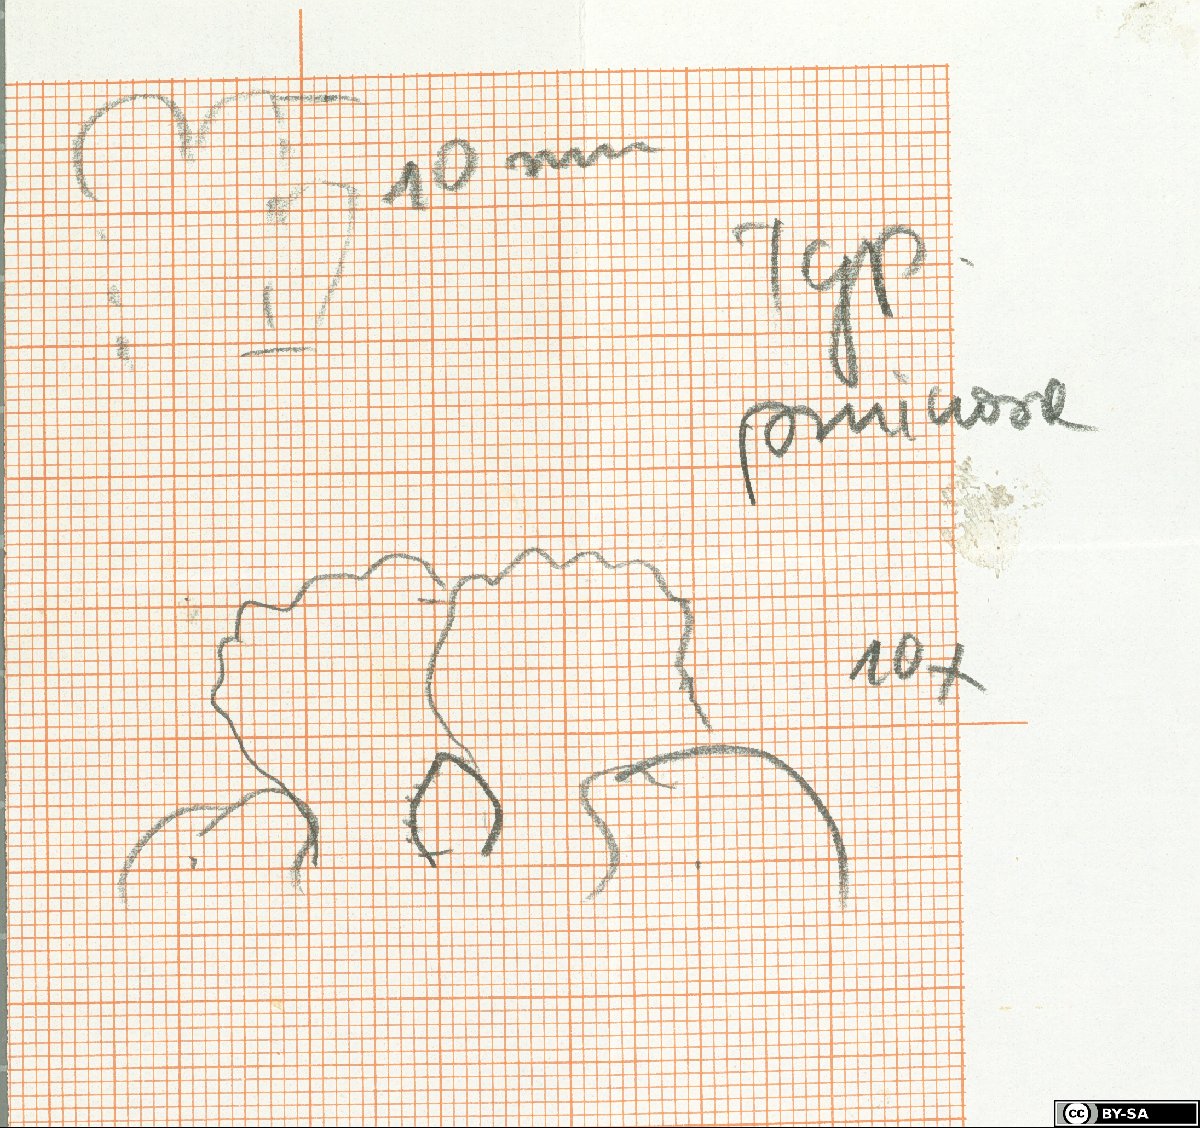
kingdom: Plantae
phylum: Tracheophyta
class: Magnoliopsida
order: Lamiales
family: Scrophulariaceae
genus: Scrophularia
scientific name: Scrophularia pruinosa
